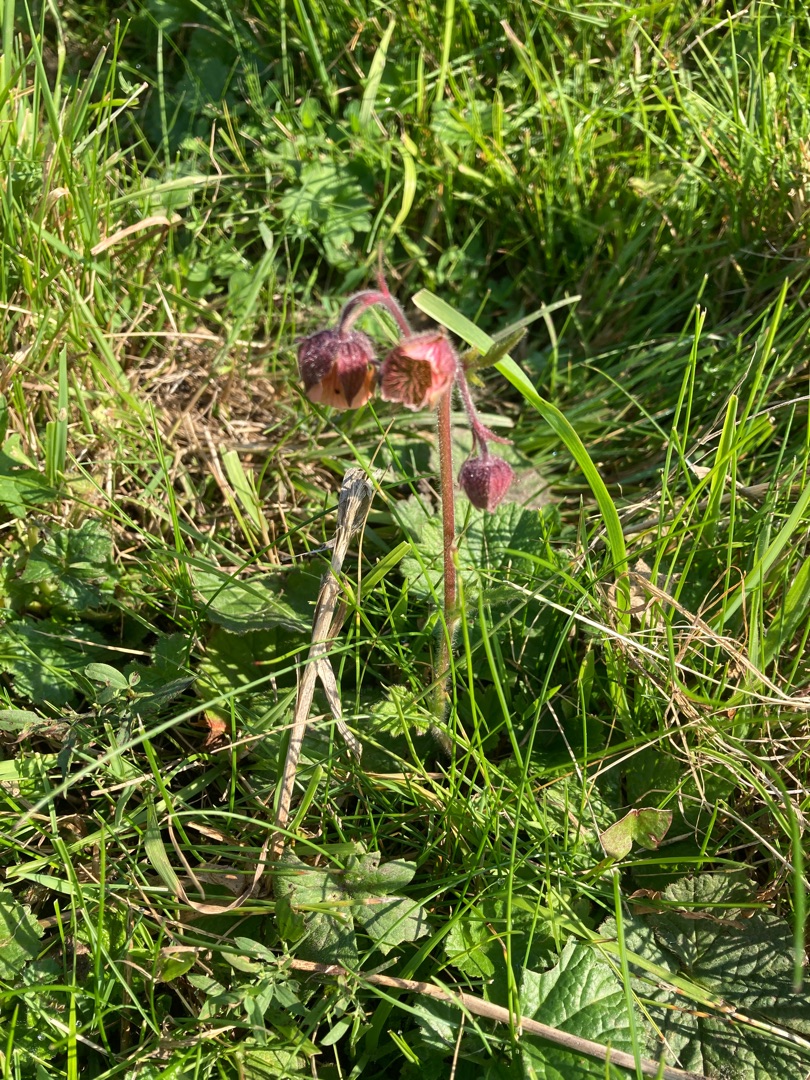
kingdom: Plantae
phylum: Tracheophyta
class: Magnoliopsida
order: Rosales
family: Rosaceae
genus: Geum
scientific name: Geum rivale
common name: Eng-nellikerod
